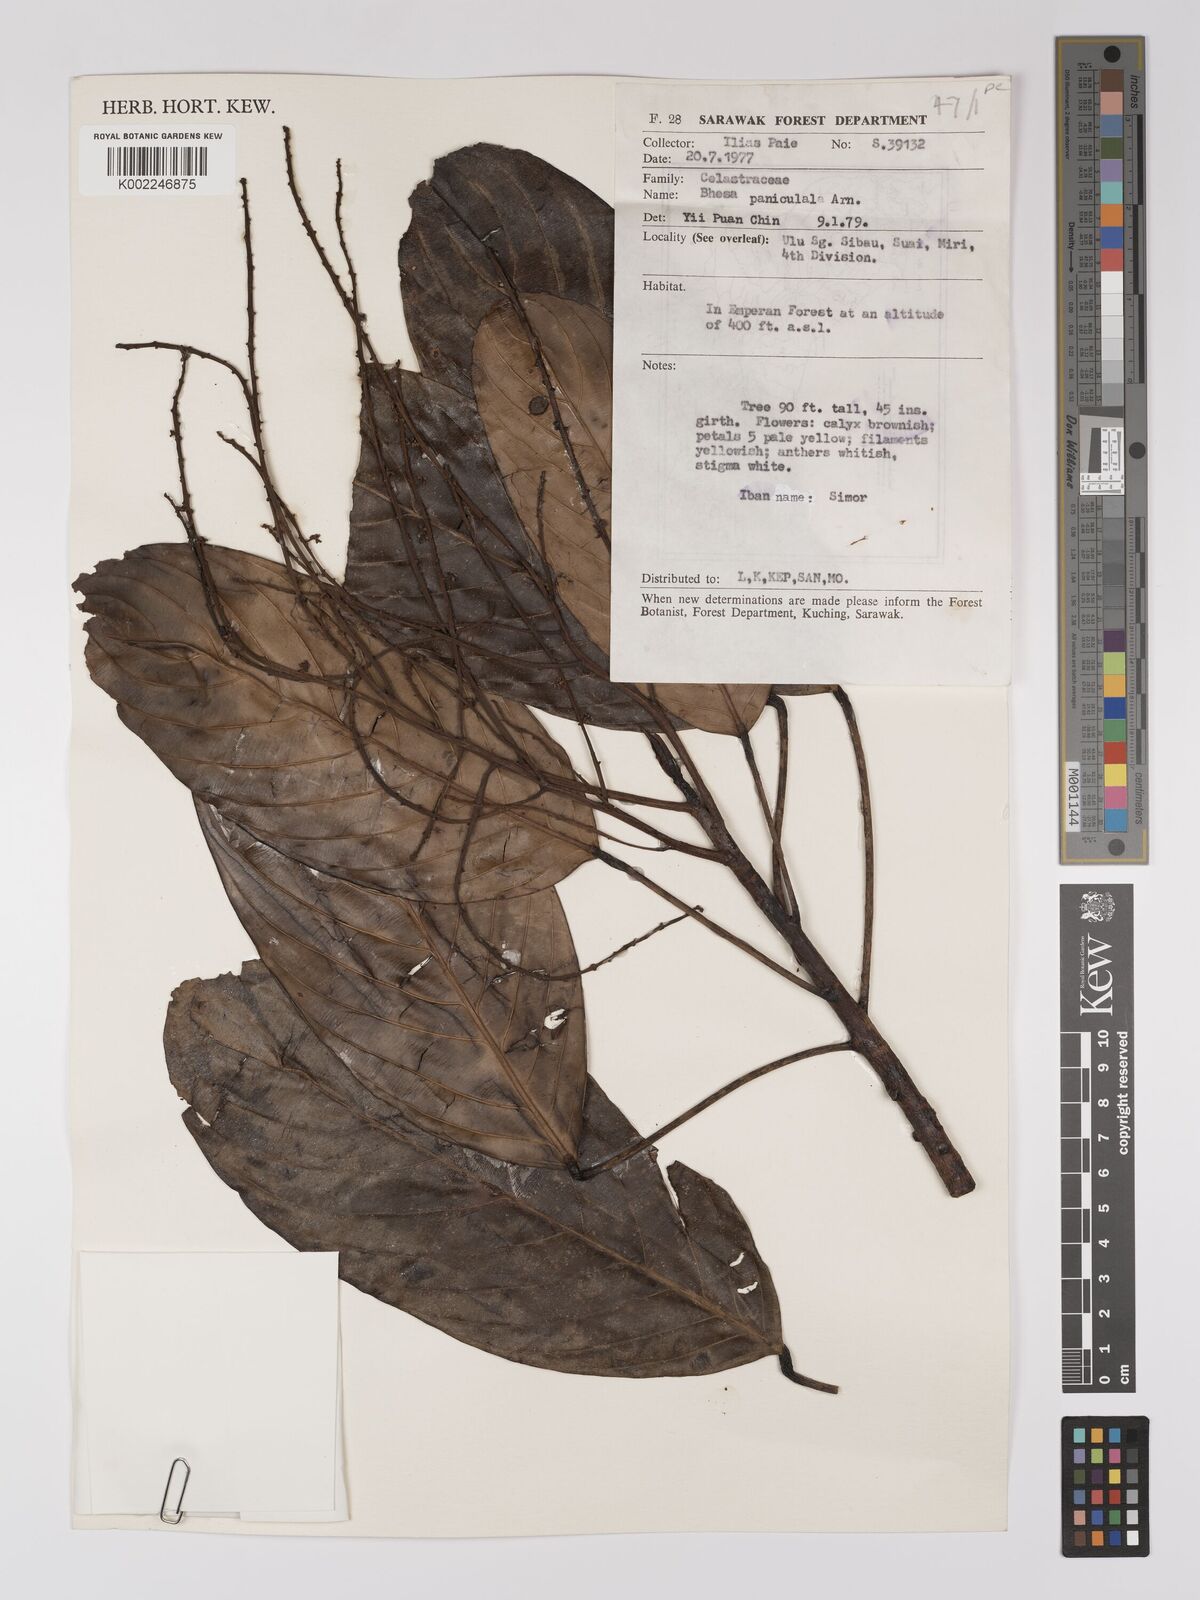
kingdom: Plantae
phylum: Tracheophyta
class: Magnoliopsida
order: Malpighiales
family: Centroplacaceae
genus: Bhesa
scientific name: Bhesa paniculata
